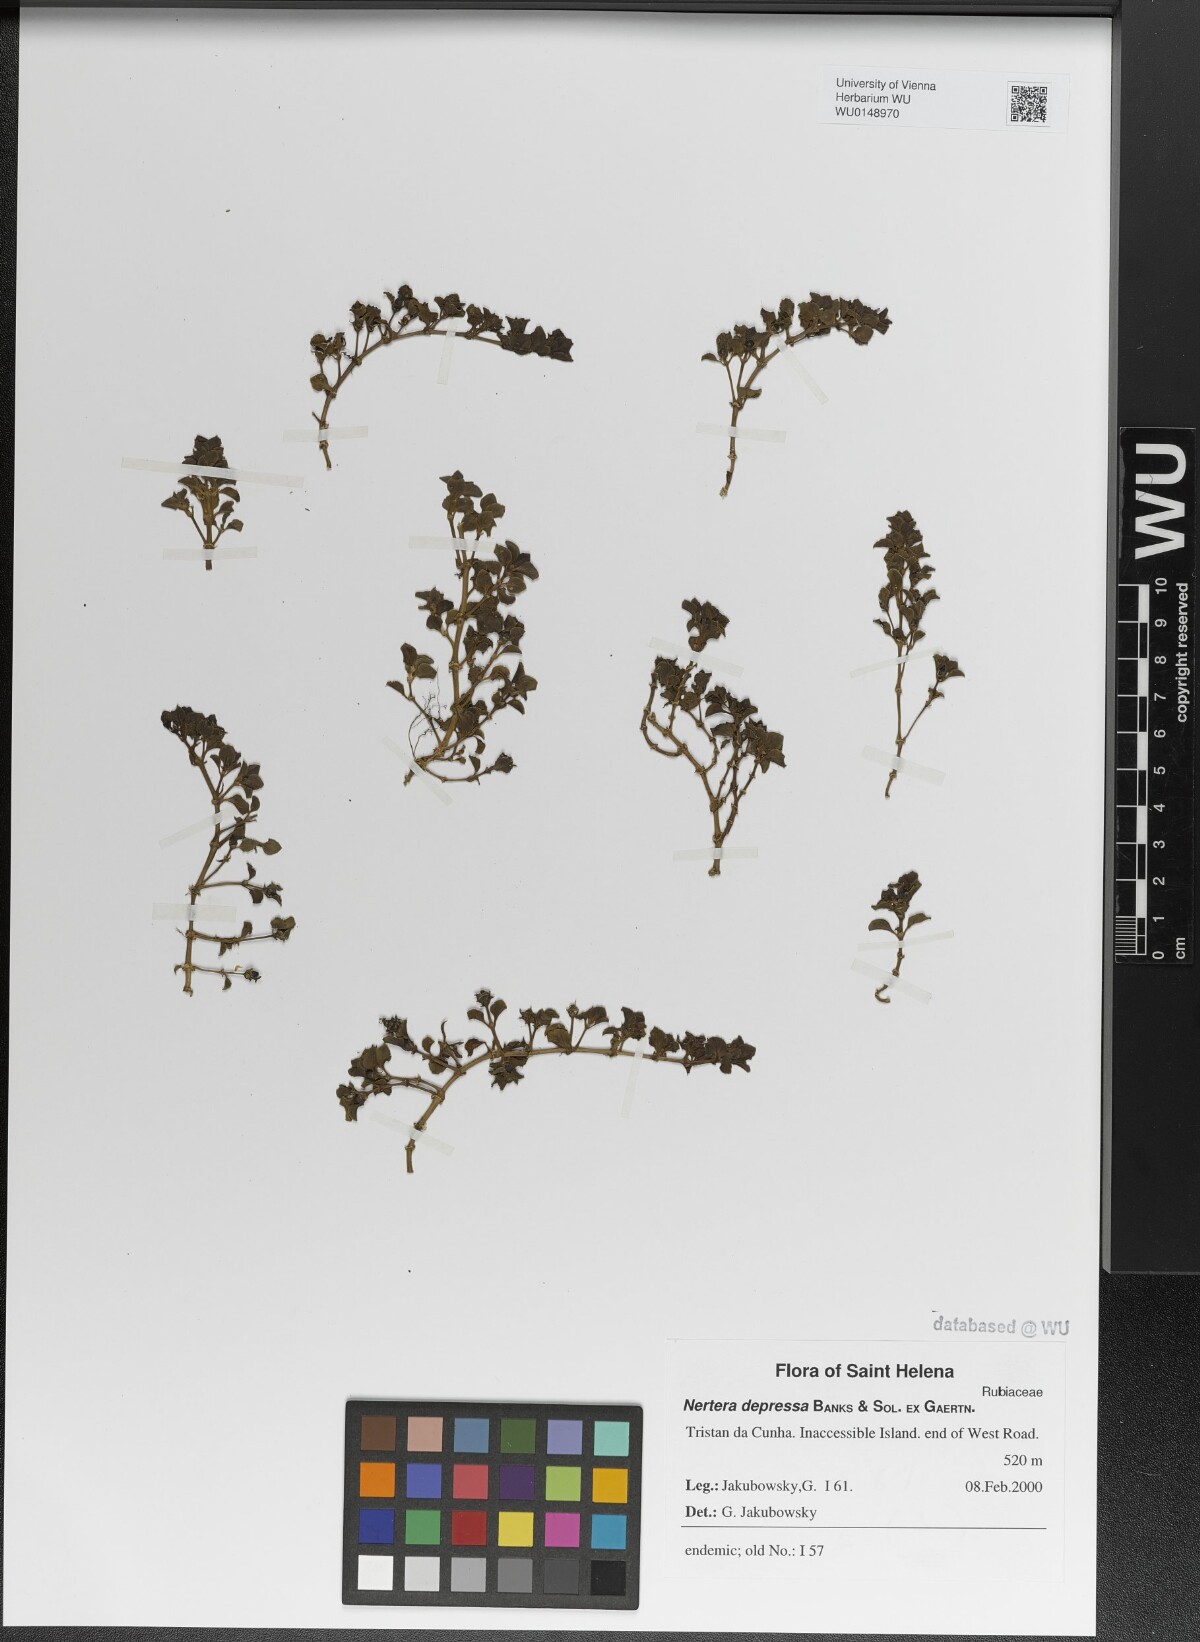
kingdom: Plantae
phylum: Tracheophyta
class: Magnoliopsida
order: Gentianales
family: Rubiaceae
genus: Nertera
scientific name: Nertera granadensis
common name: Beadplant
